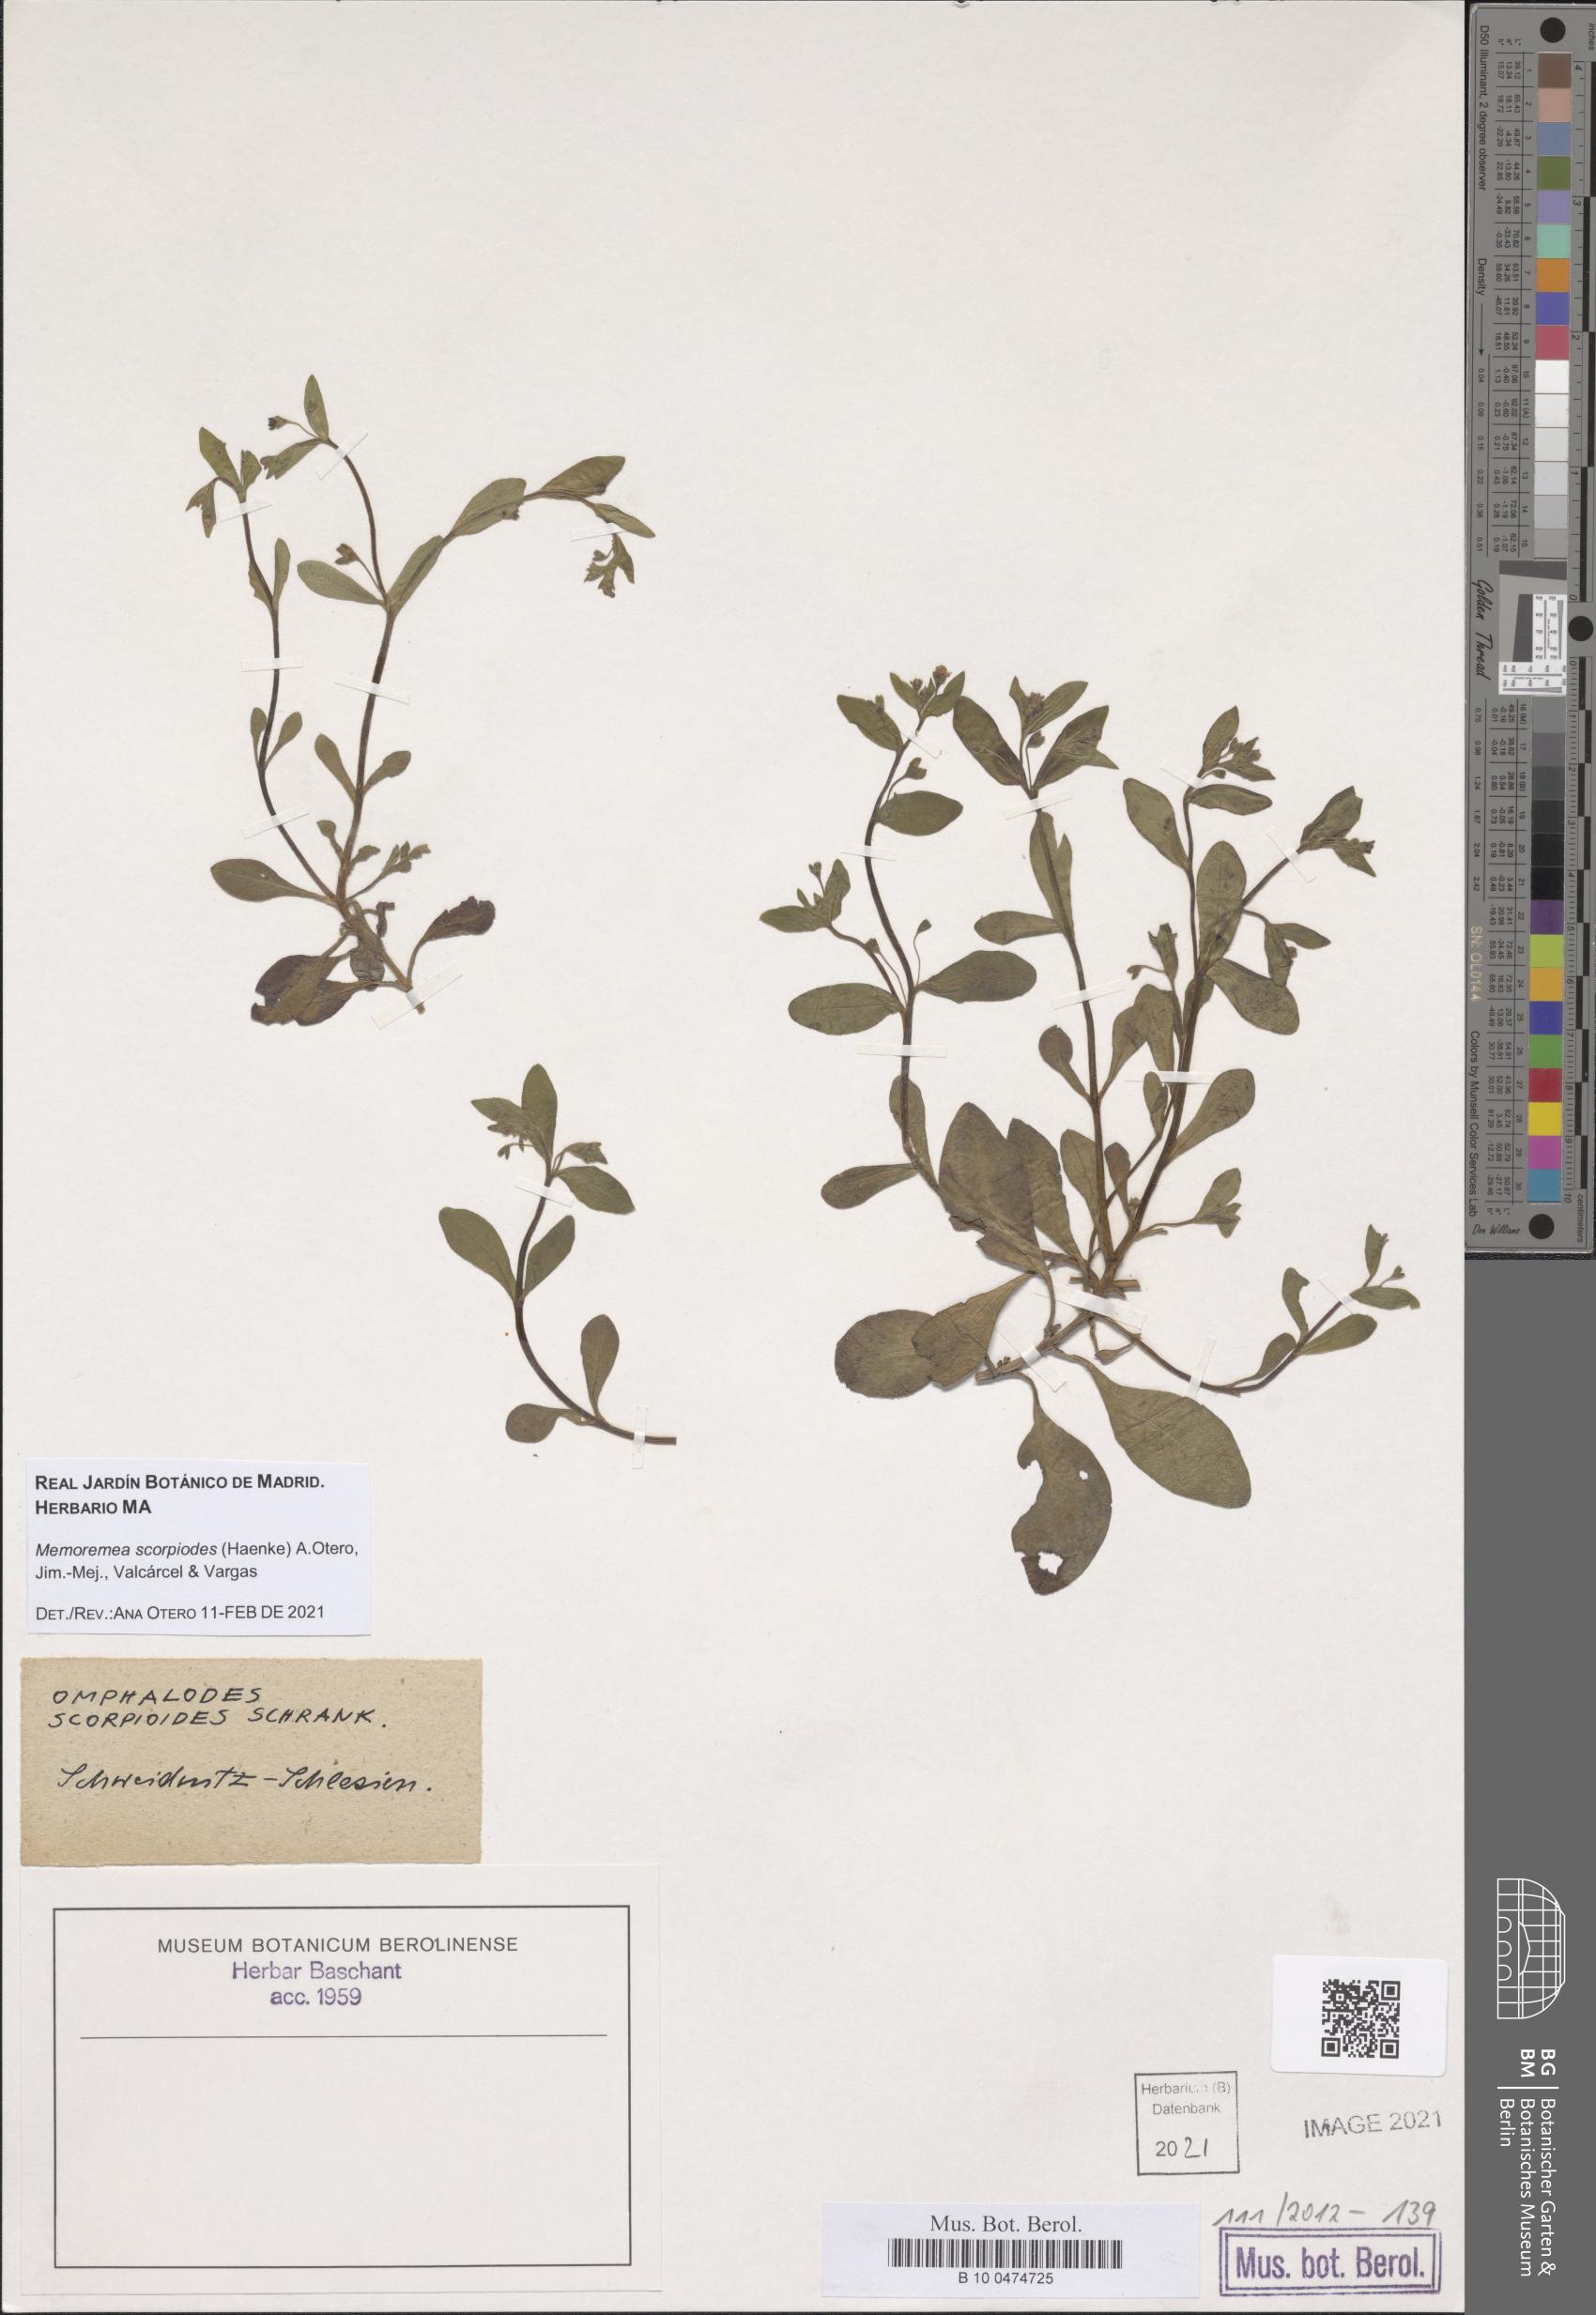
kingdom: Plantae
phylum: Tracheophyta
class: Magnoliopsida
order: Boraginales
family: Boraginaceae
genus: Memoremea
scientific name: Memoremea scorpioides
